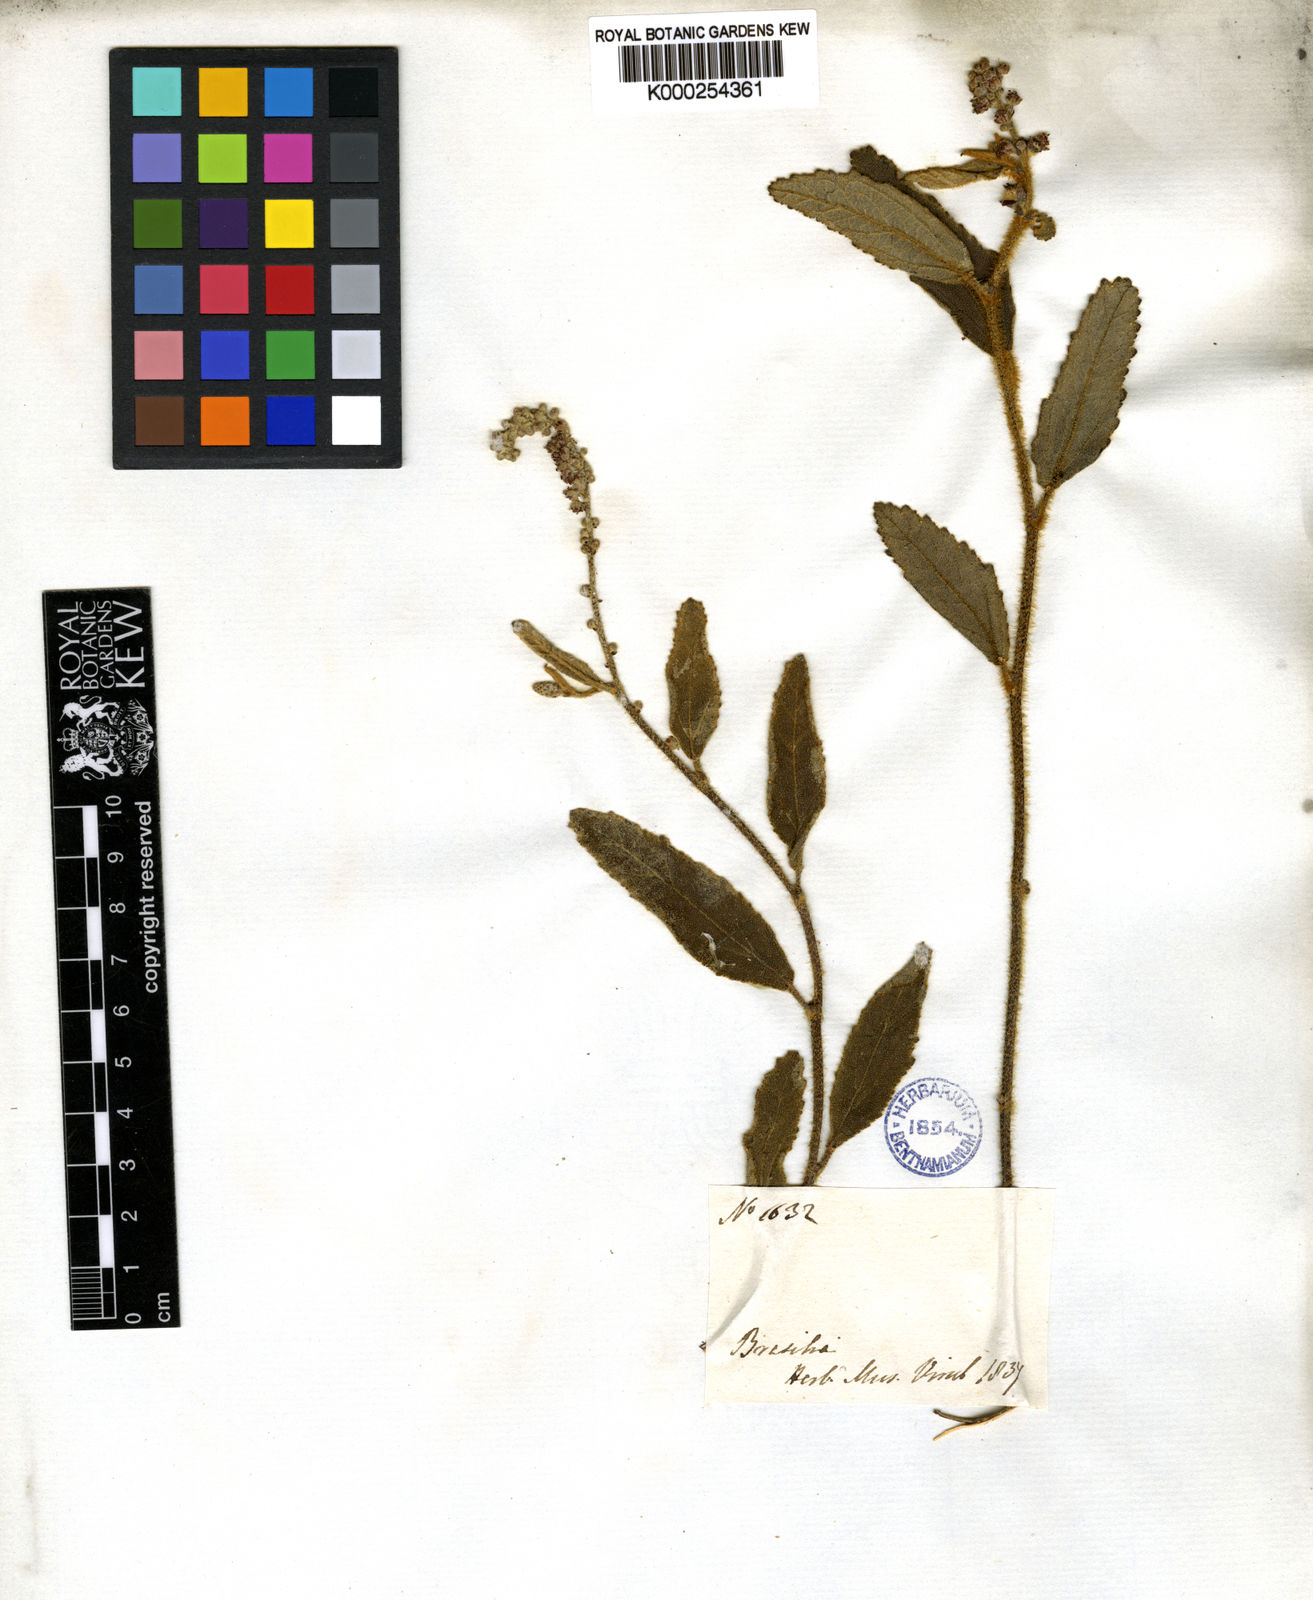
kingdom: Plantae
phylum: Tracheophyta
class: Magnoliopsida
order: Malpighiales
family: Euphorbiaceae
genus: Croton
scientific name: Croton antisyphiliticus
